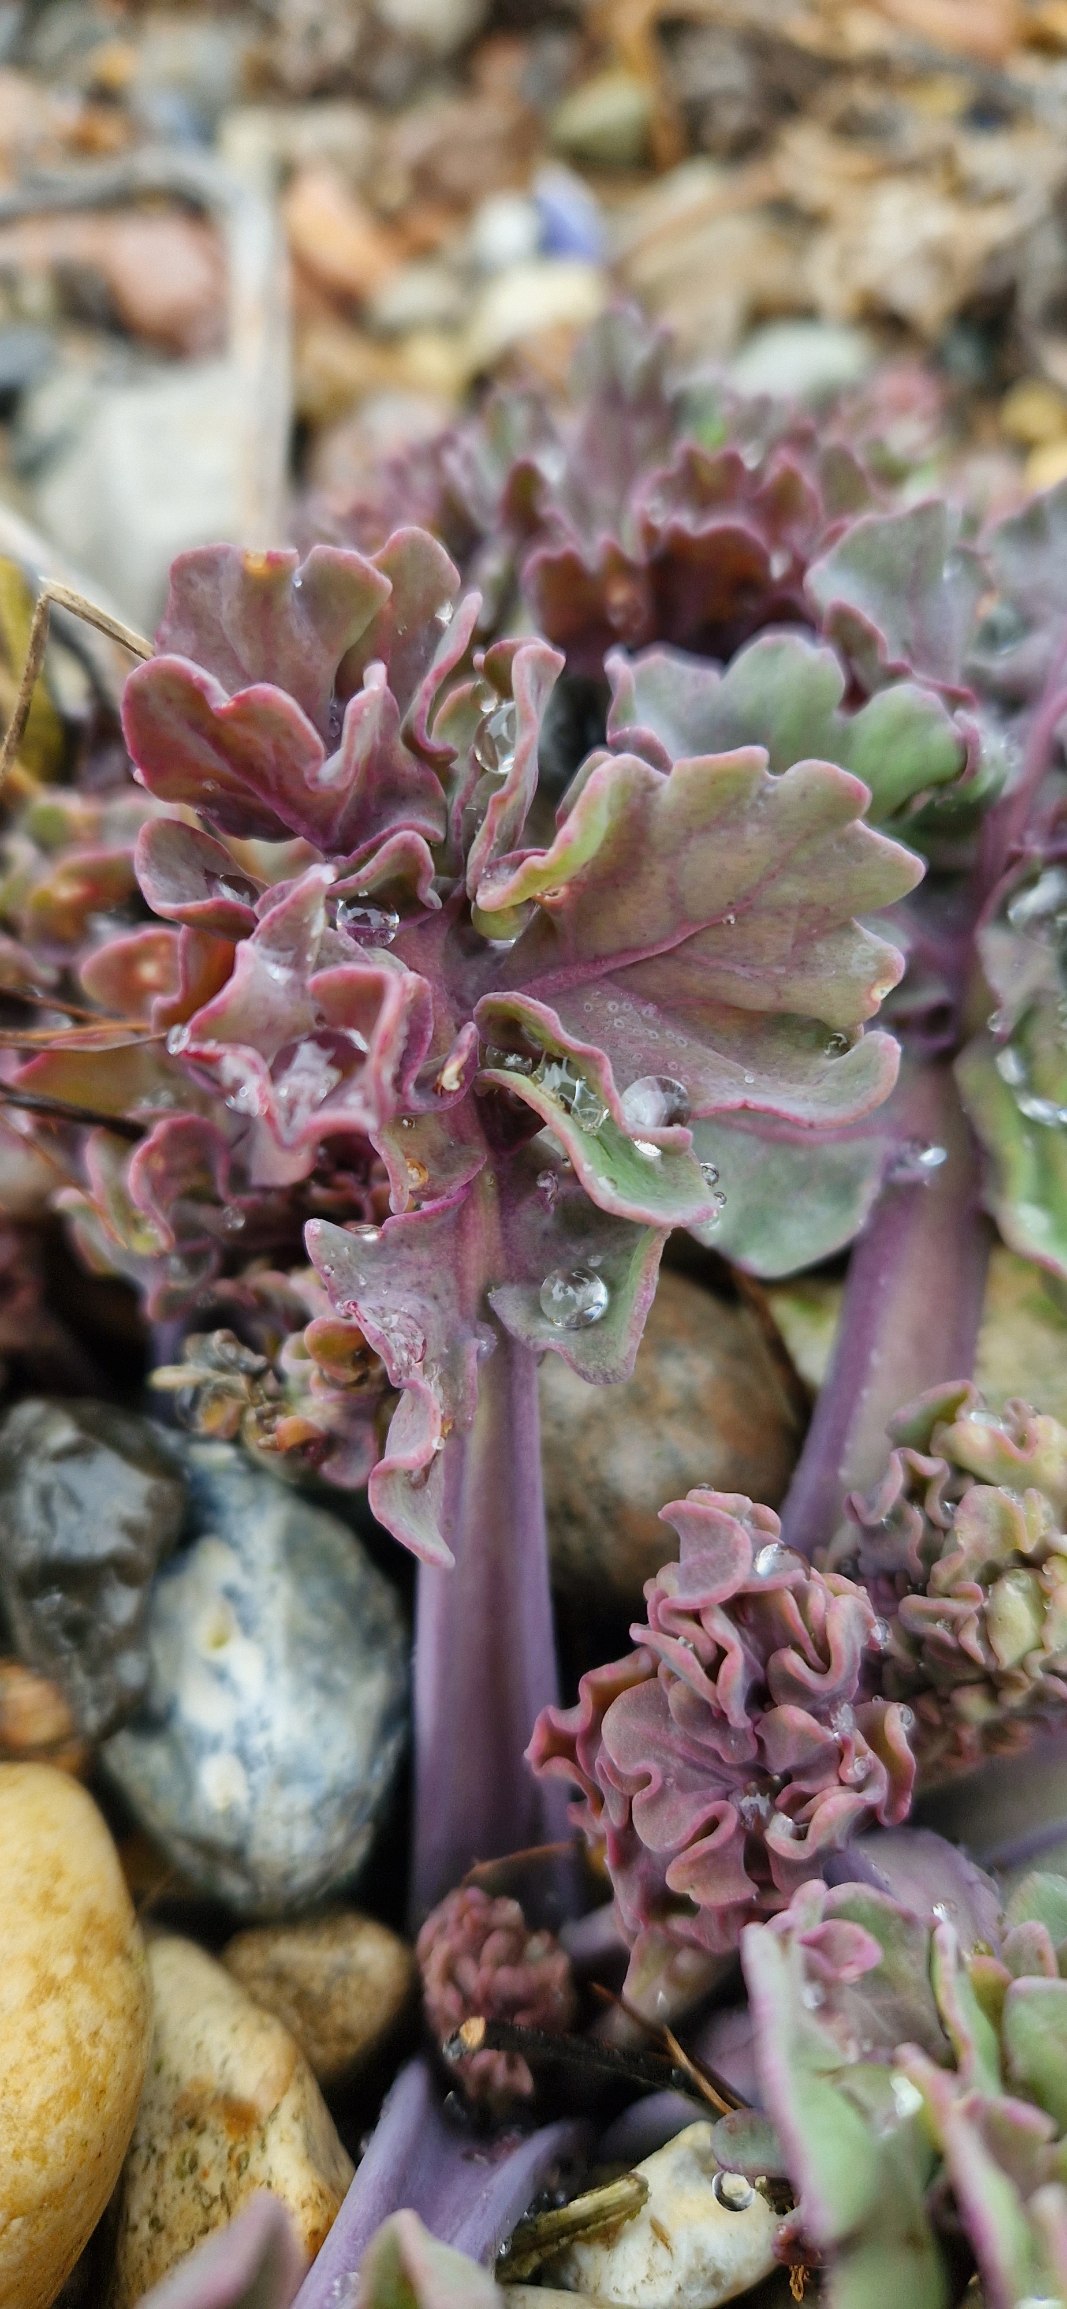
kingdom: Plantae
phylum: Tracheophyta
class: Magnoliopsida
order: Brassicales
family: Brassicaceae
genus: Crambe
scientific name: Crambe maritima
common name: Strandkål
